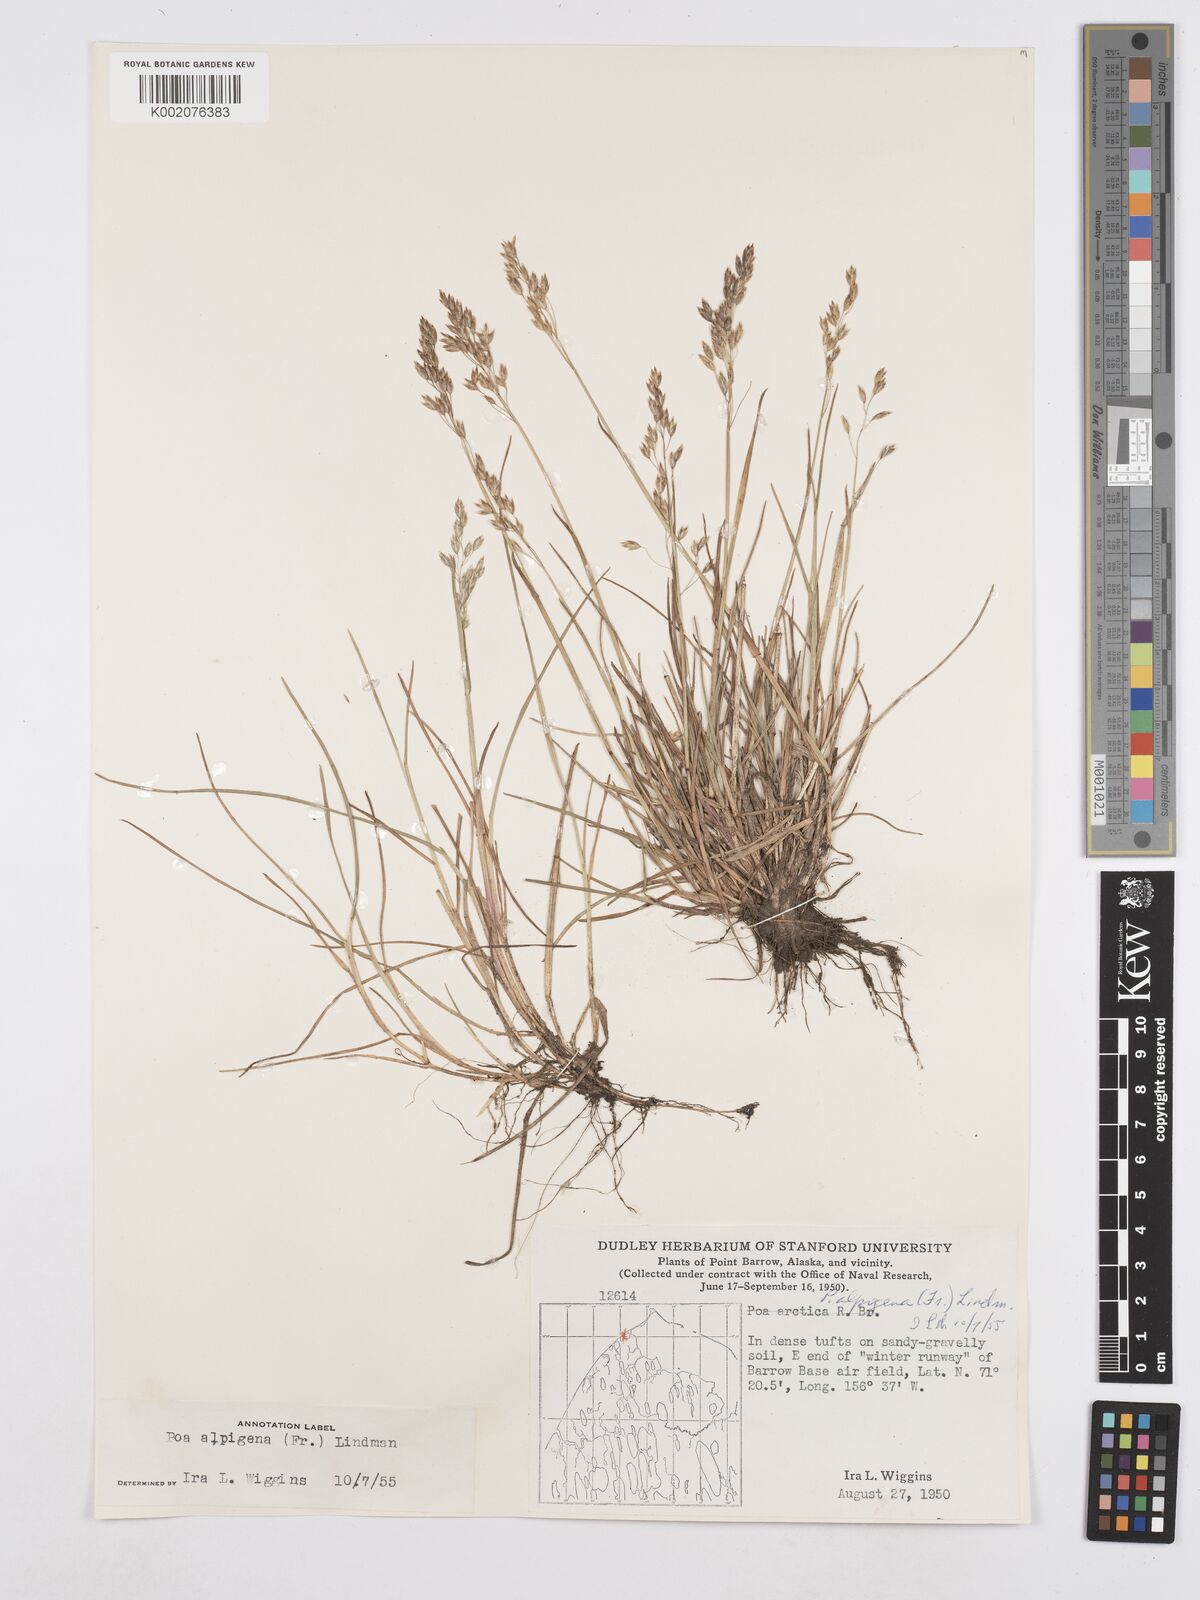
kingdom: Plantae
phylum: Tracheophyta
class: Liliopsida
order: Poales
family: Poaceae
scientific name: Poaceae
